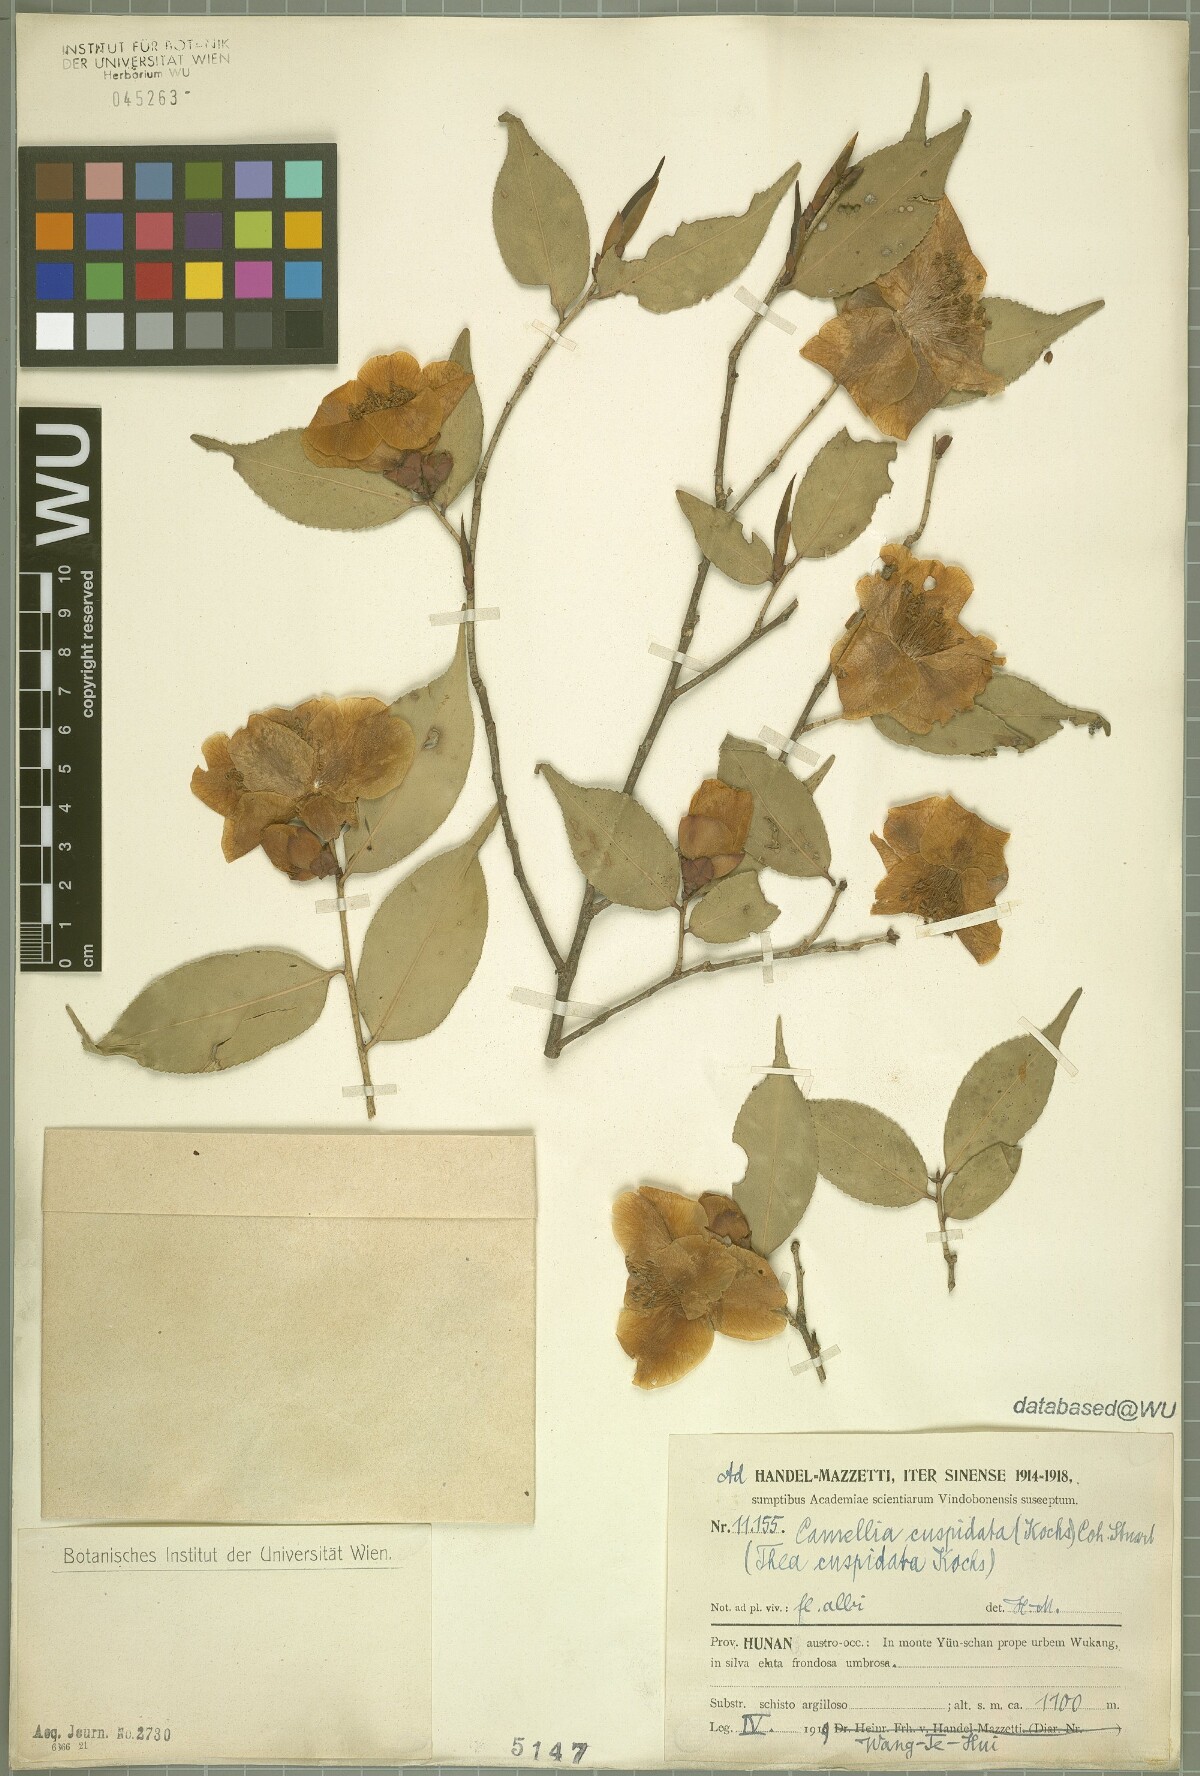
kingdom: Plantae
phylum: Tracheophyta
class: Magnoliopsida
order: Ericales
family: Theaceae
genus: Camellia
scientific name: Camellia cuspidata
